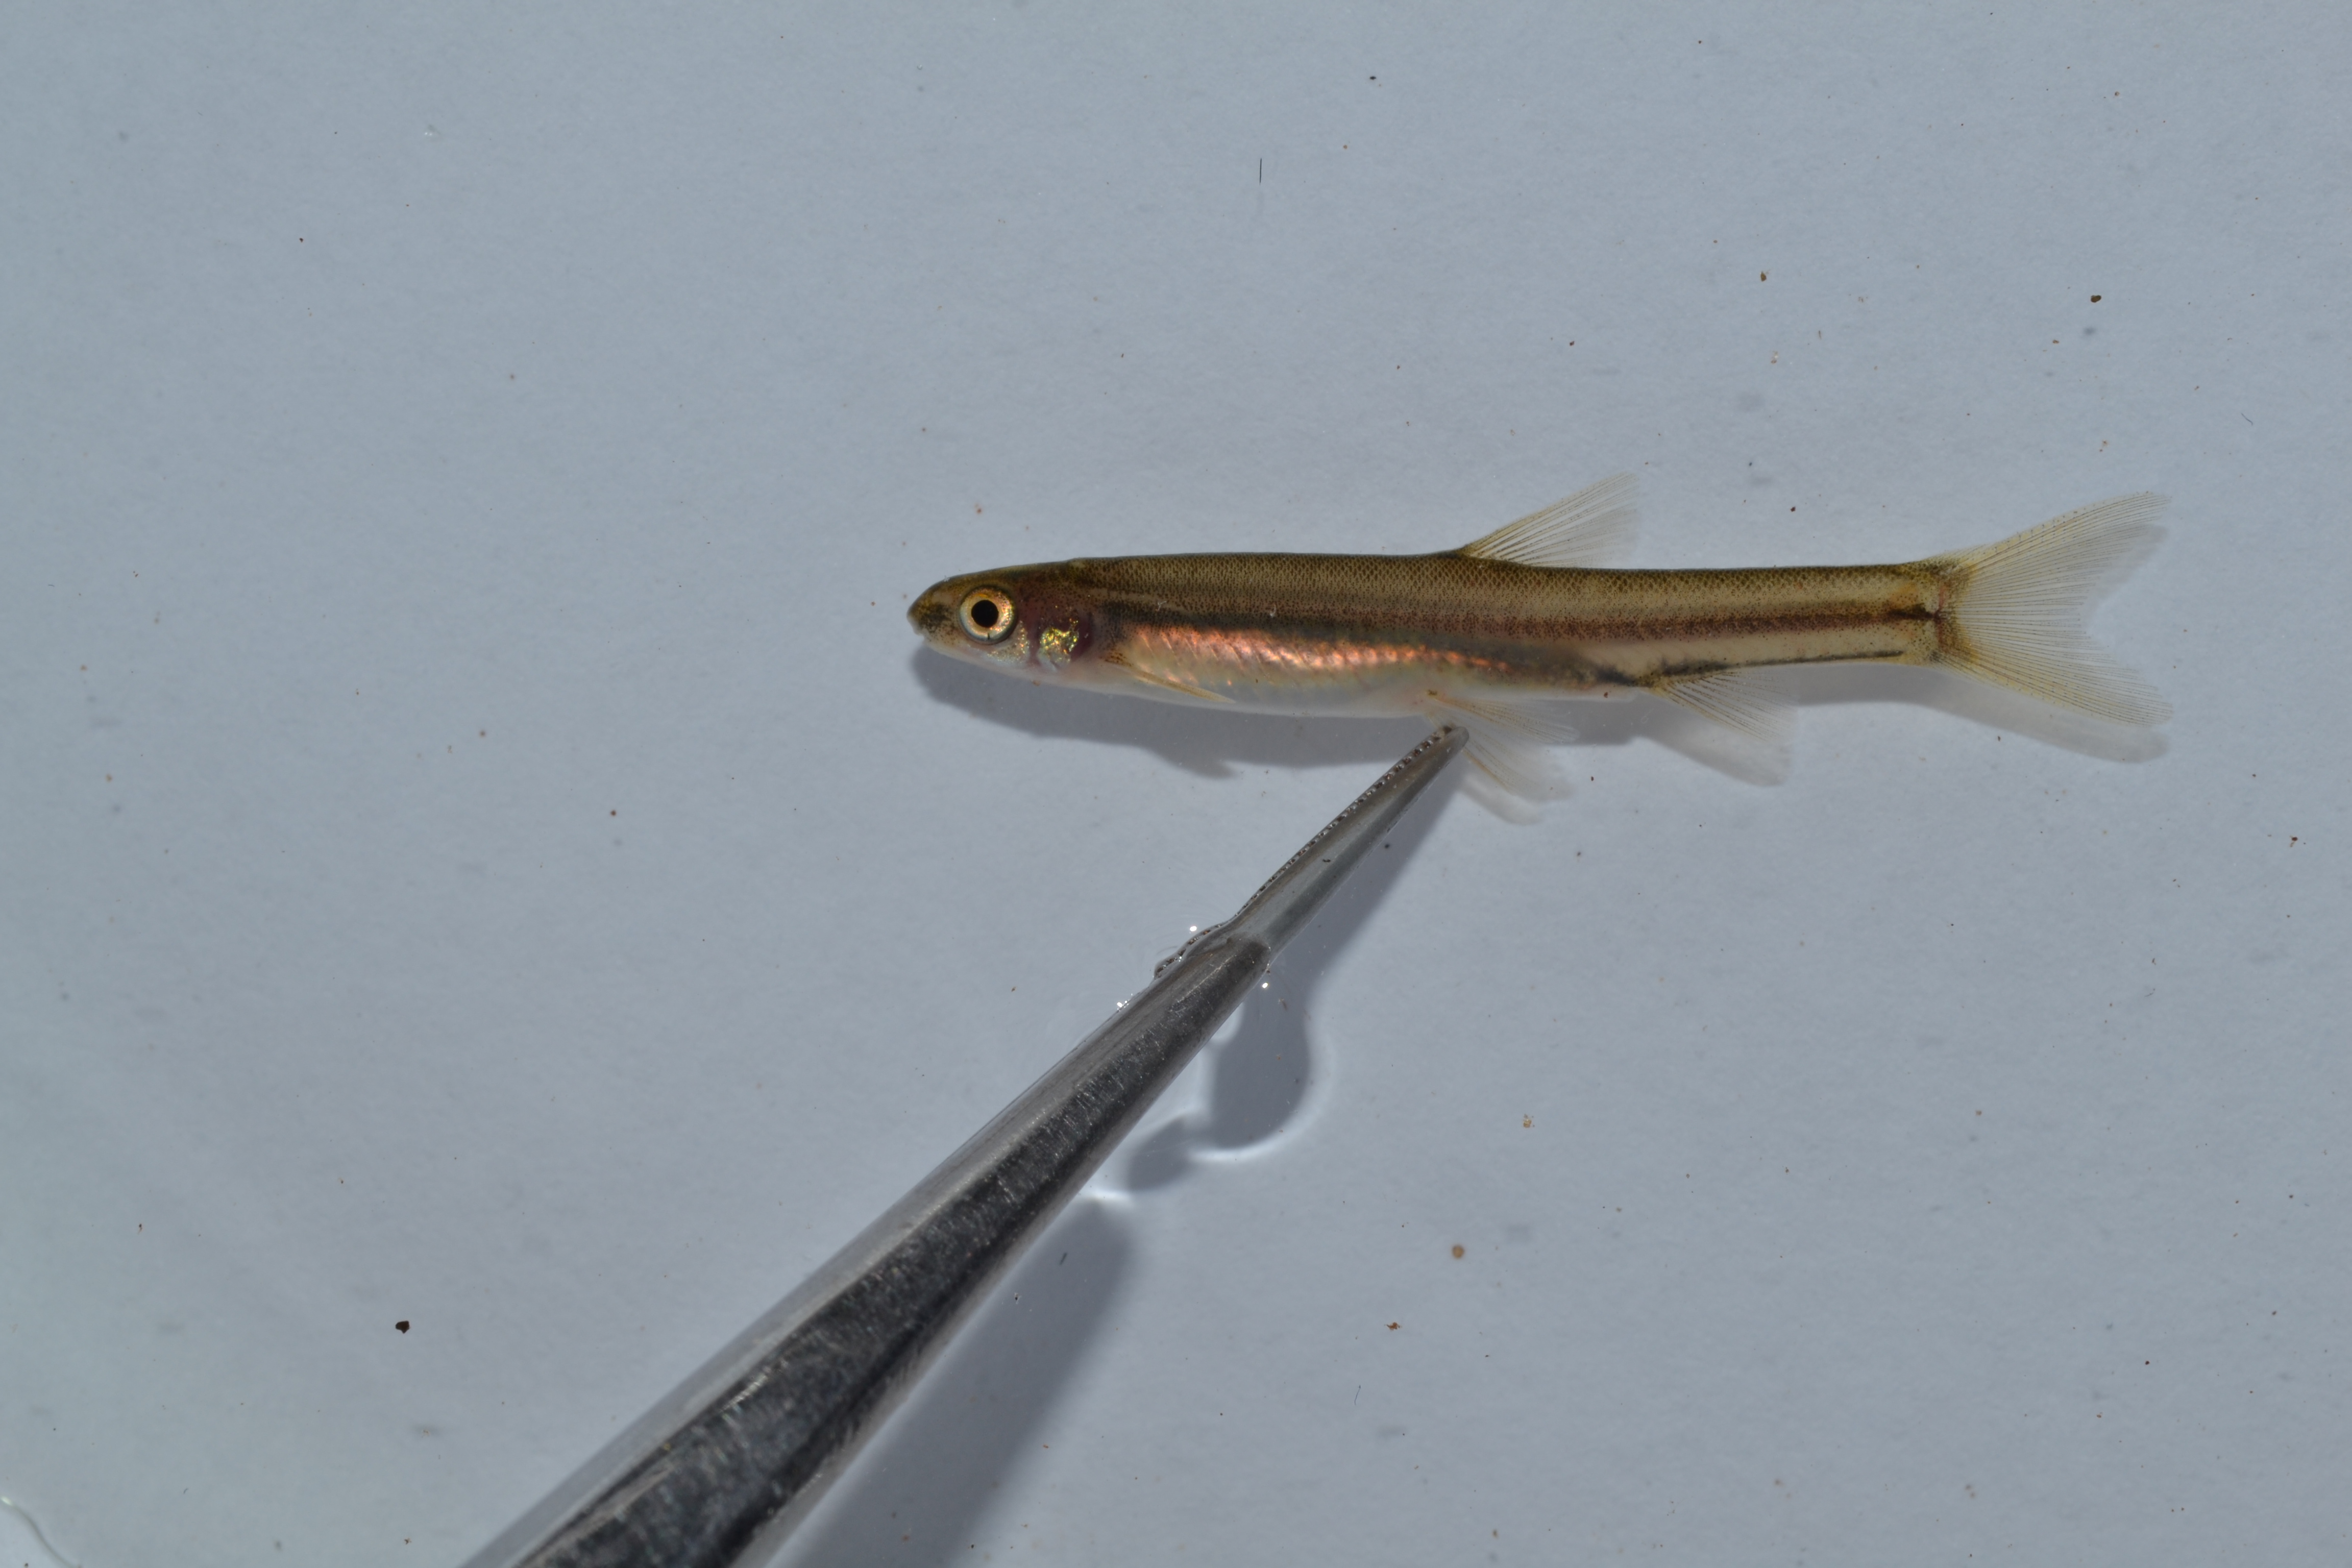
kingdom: Animalia
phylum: Chordata
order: Gonorynchiformes
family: Kneriidae
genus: Kneria
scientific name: Kneria auriculata
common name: Airbreathing shellear
